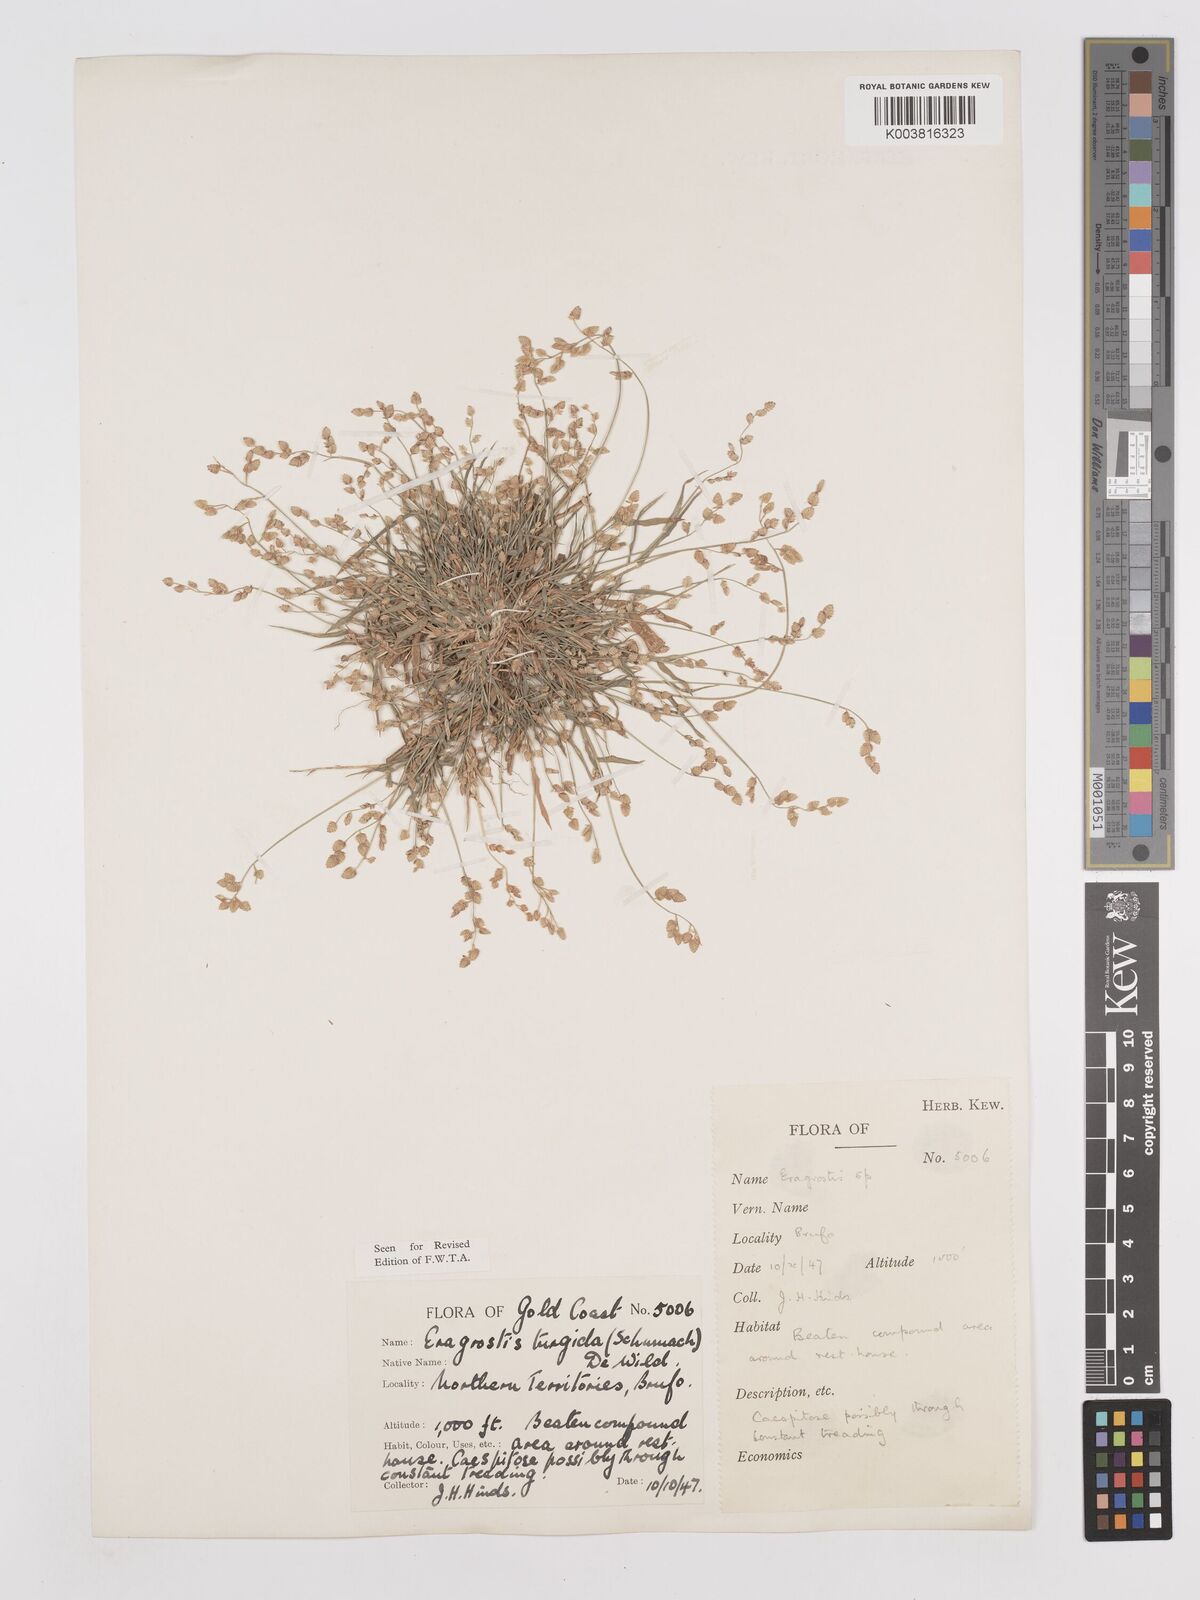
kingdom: Plantae
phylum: Tracheophyta
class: Liliopsida
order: Poales
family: Poaceae
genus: Eragrostis
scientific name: Eragrostis turgida
